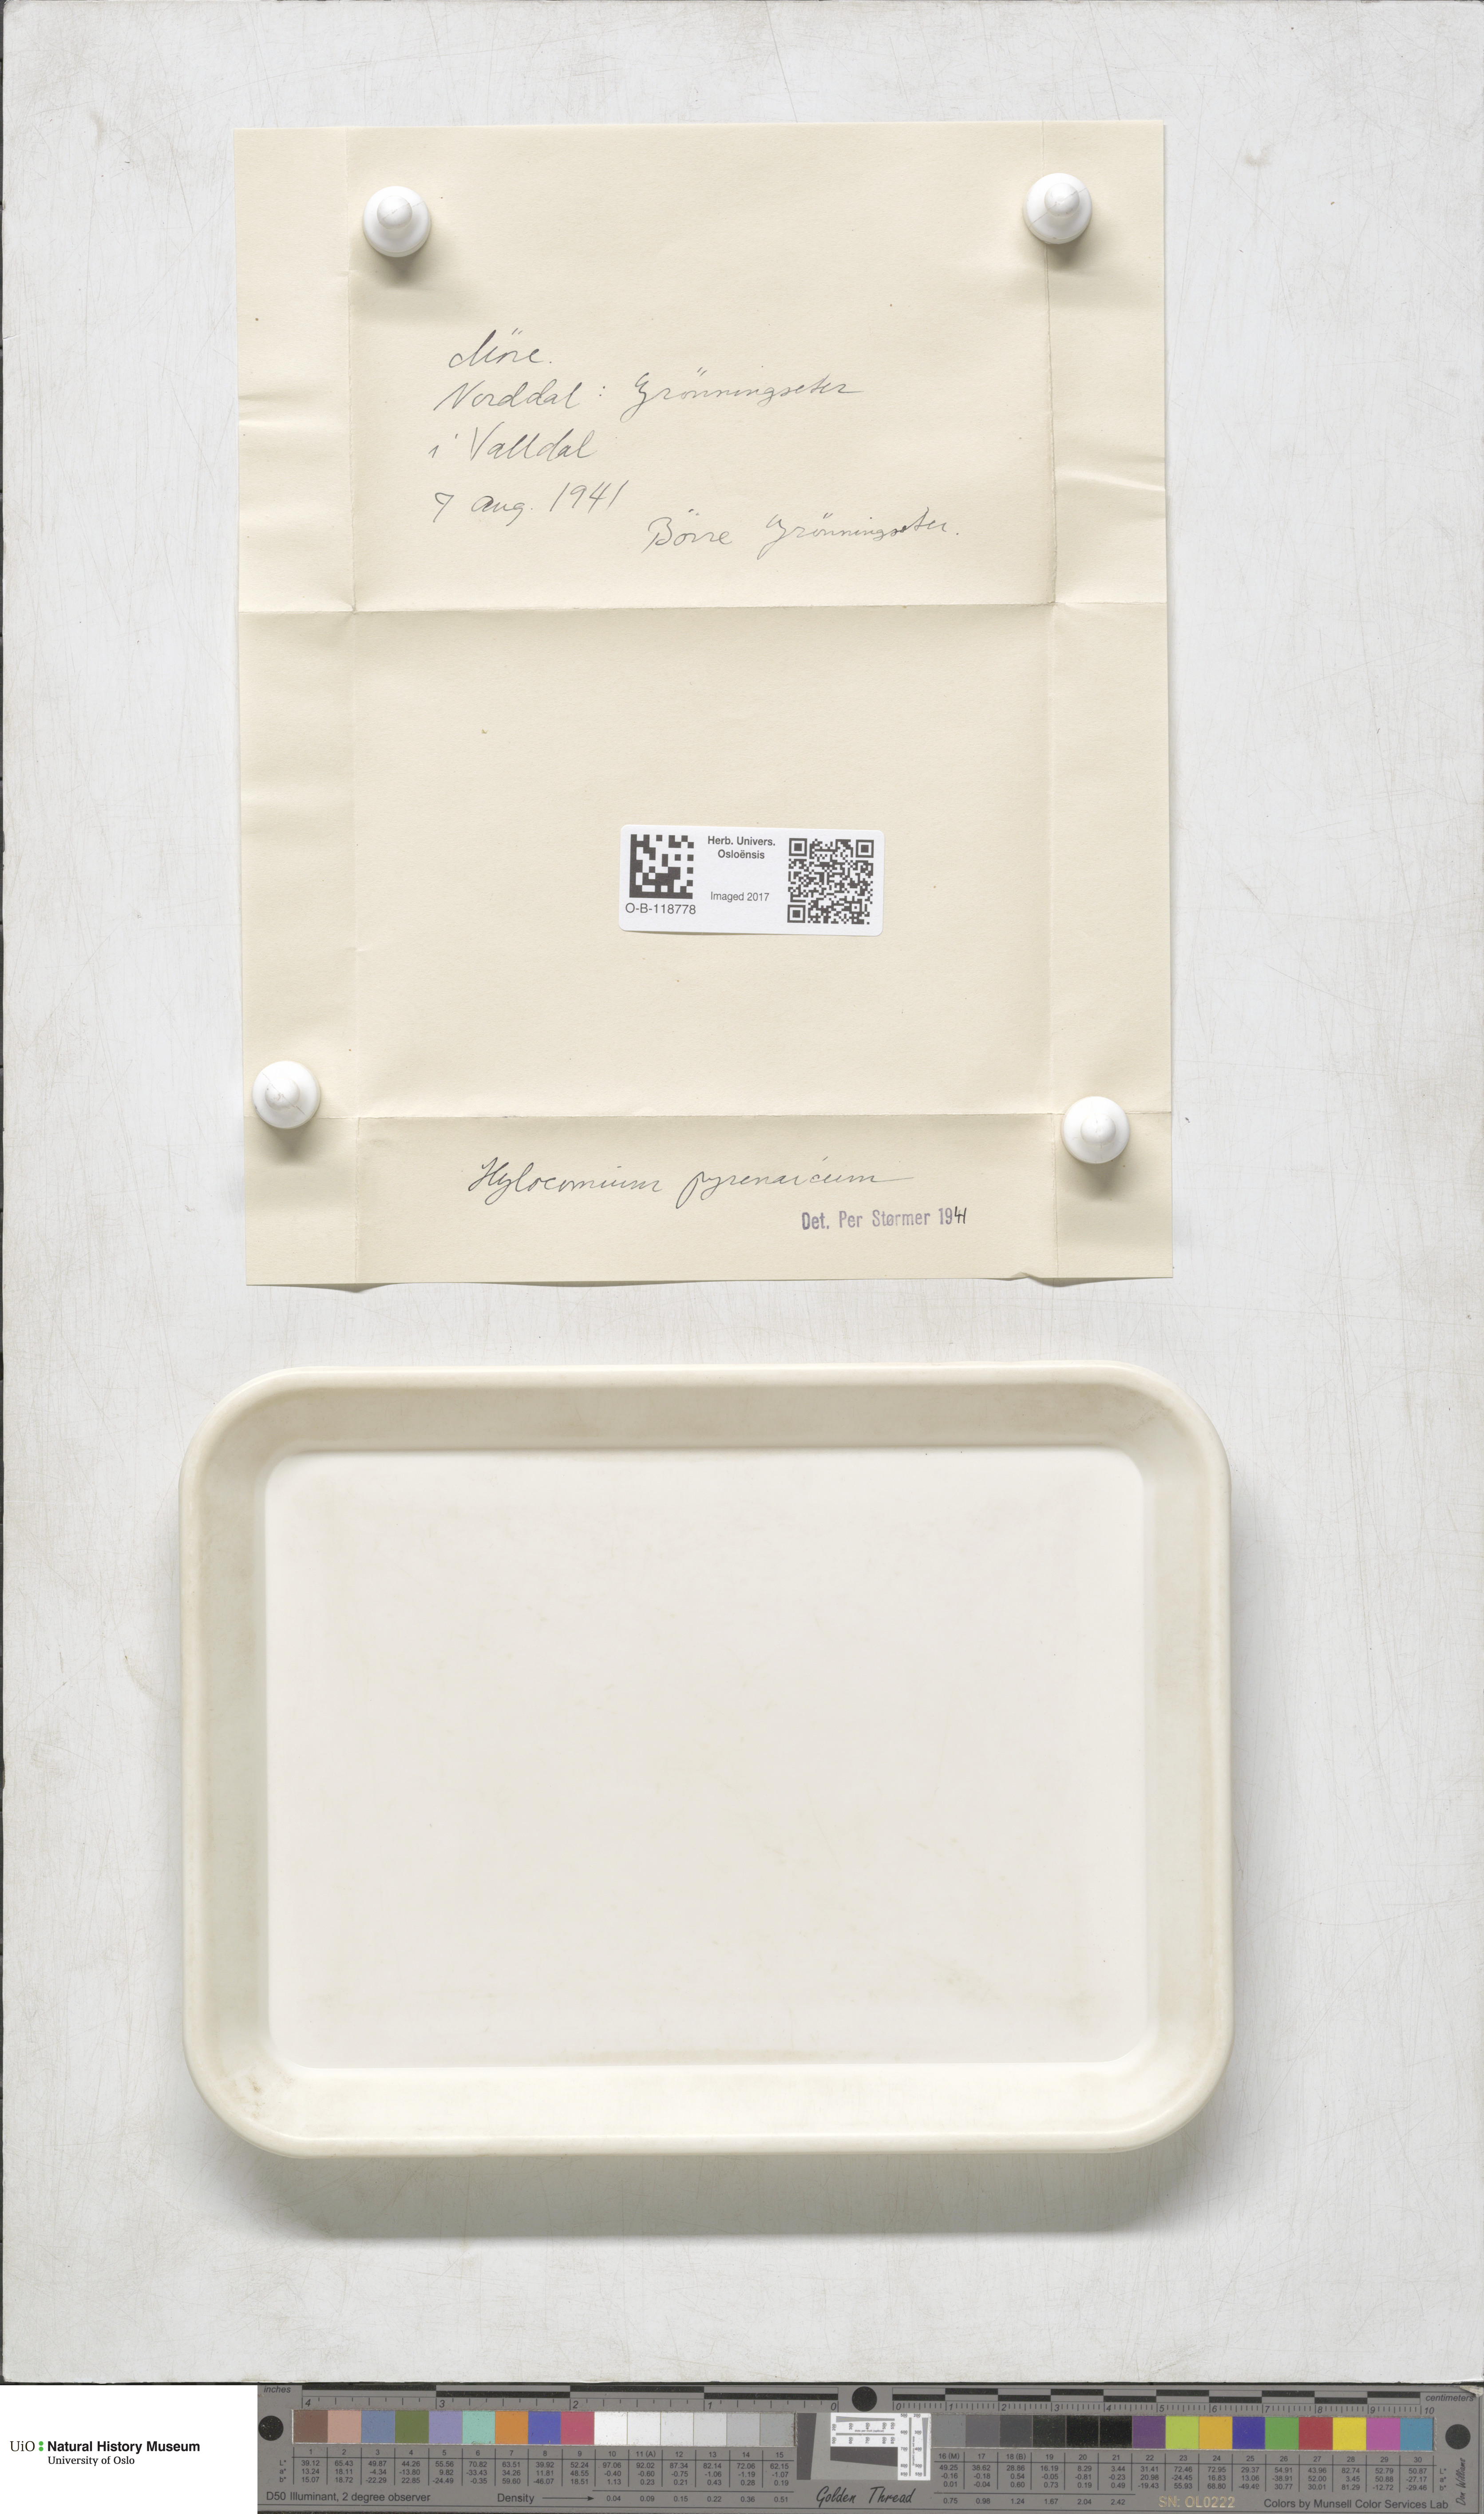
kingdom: Plantae
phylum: Bryophyta
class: Bryopsida
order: Hypnales
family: Hylocomiaceae
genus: Hylocomiastrum
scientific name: Hylocomiastrum pyrenaicum
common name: Oake s wood moss
